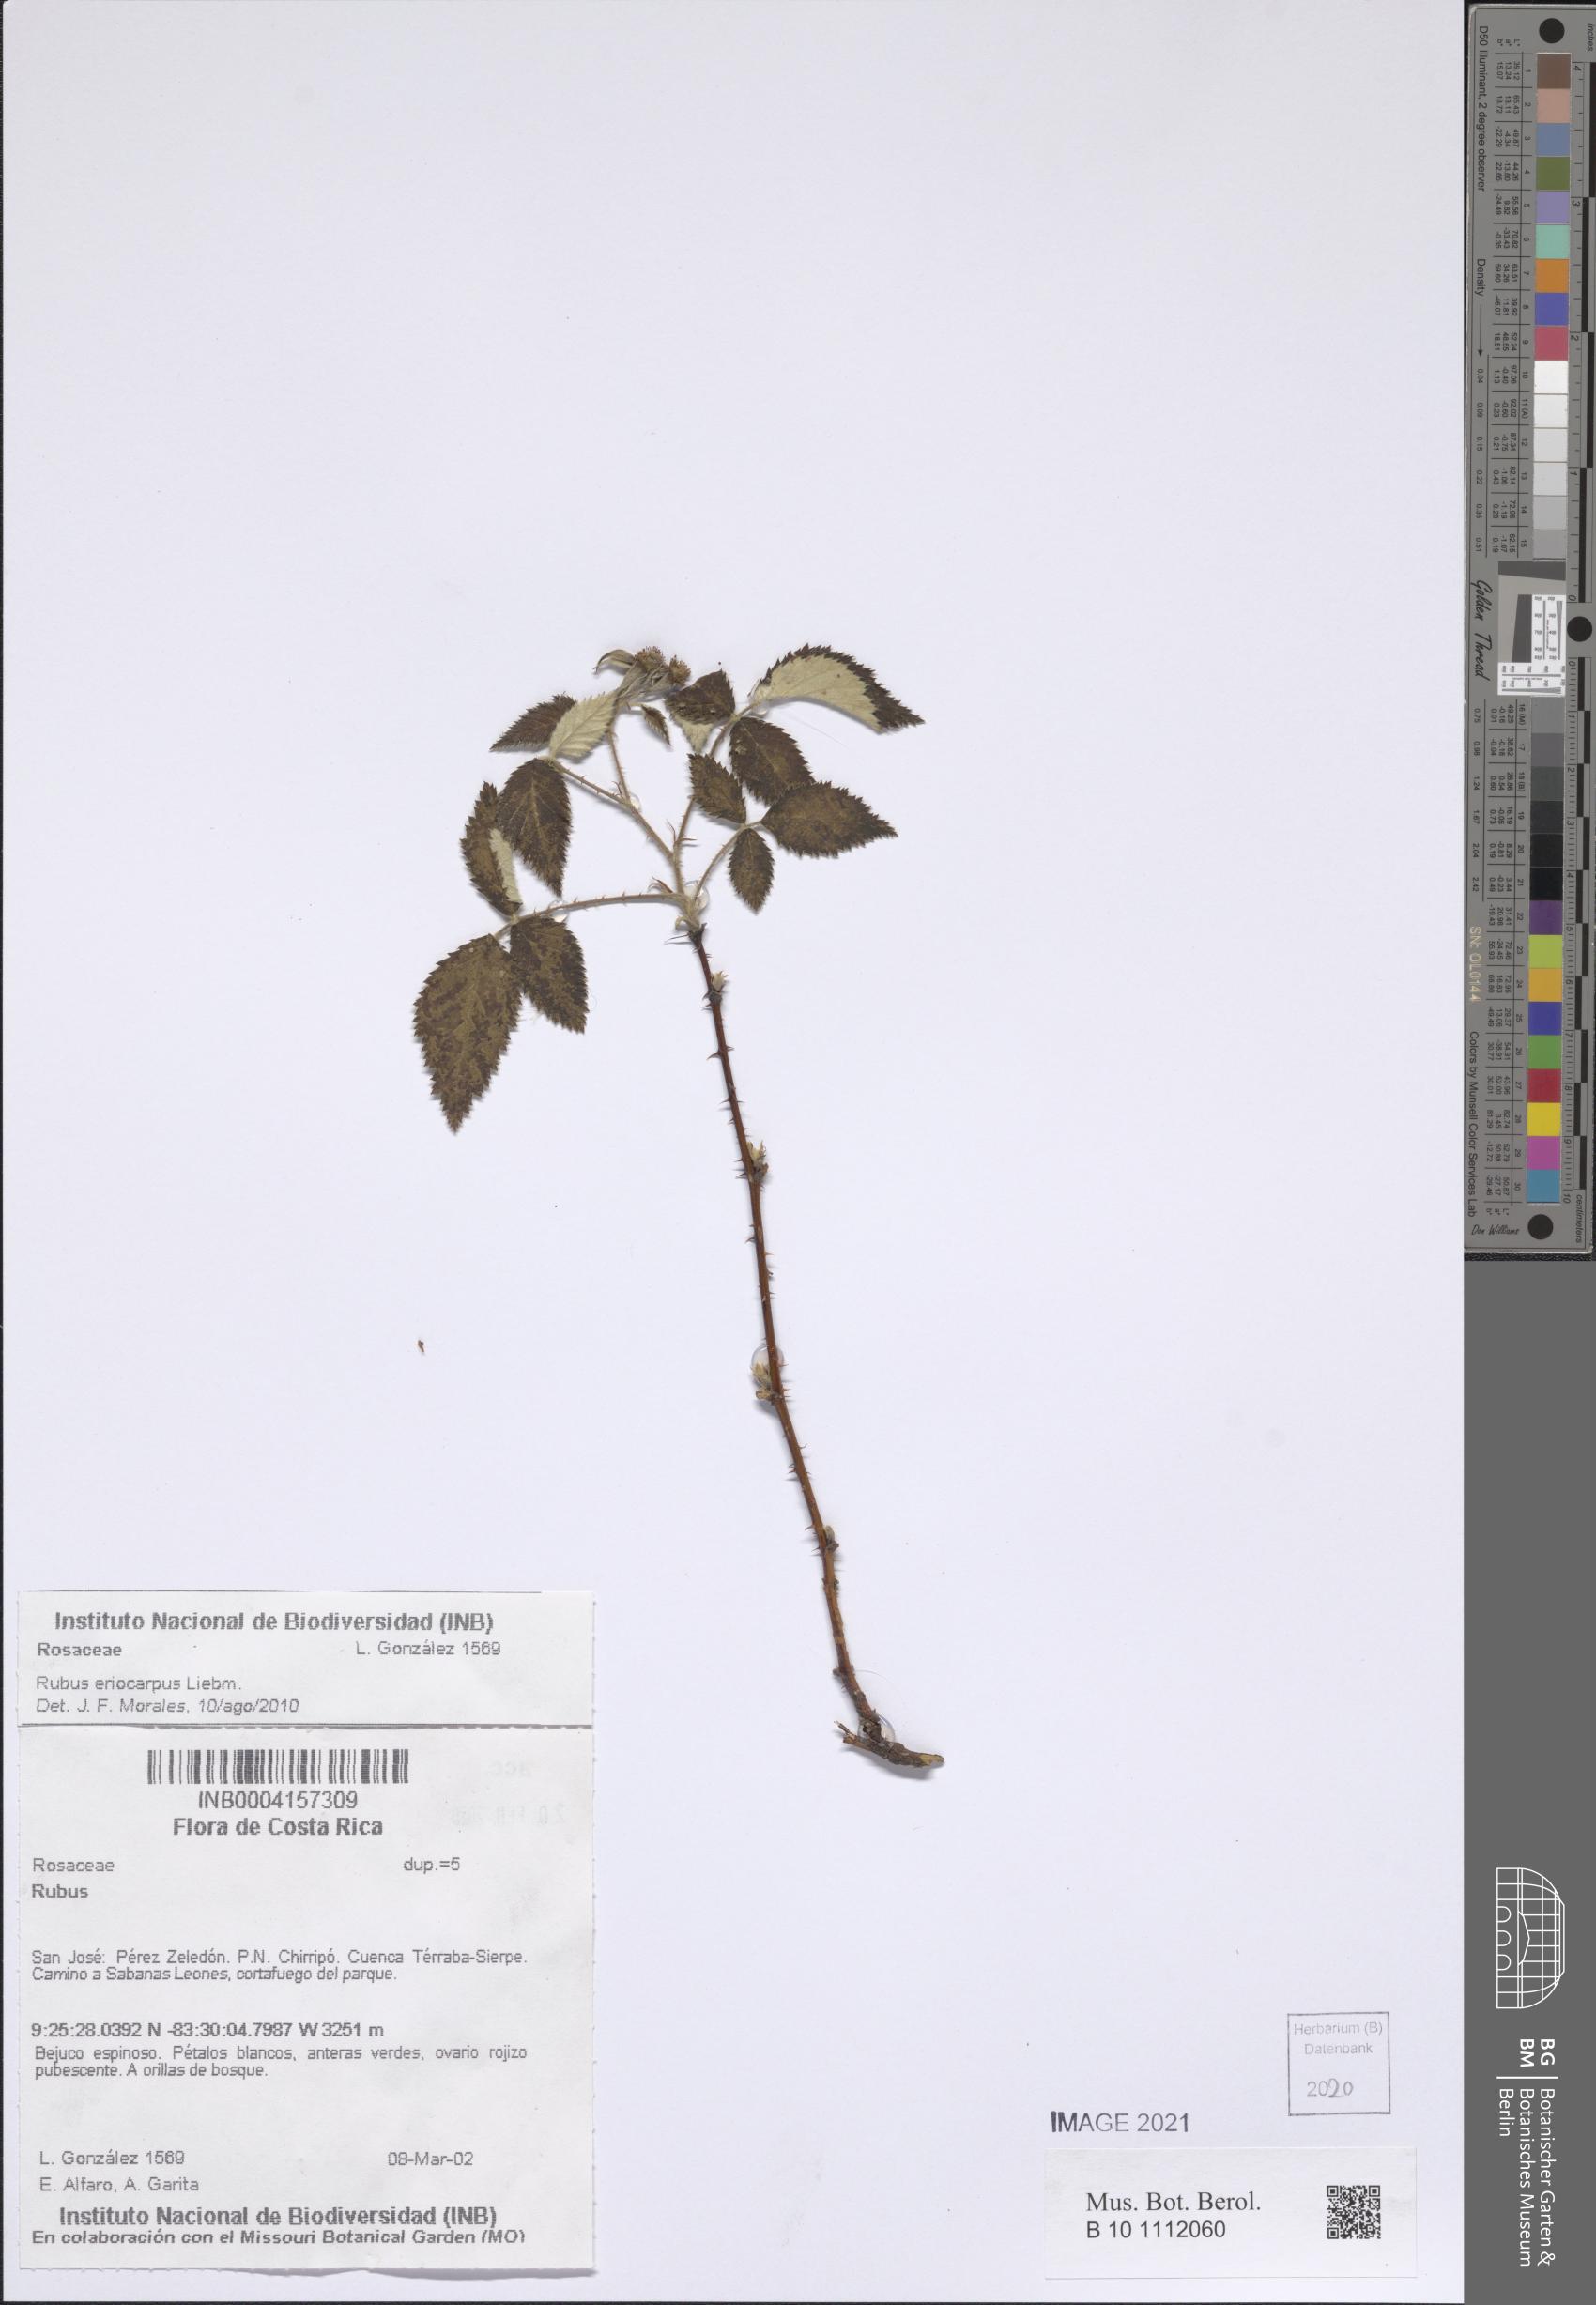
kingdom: Plantae
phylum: Tracheophyta
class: Magnoliopsida
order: Rosales
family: Rosaceae
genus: Rubus
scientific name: Rubus eriocarpus
